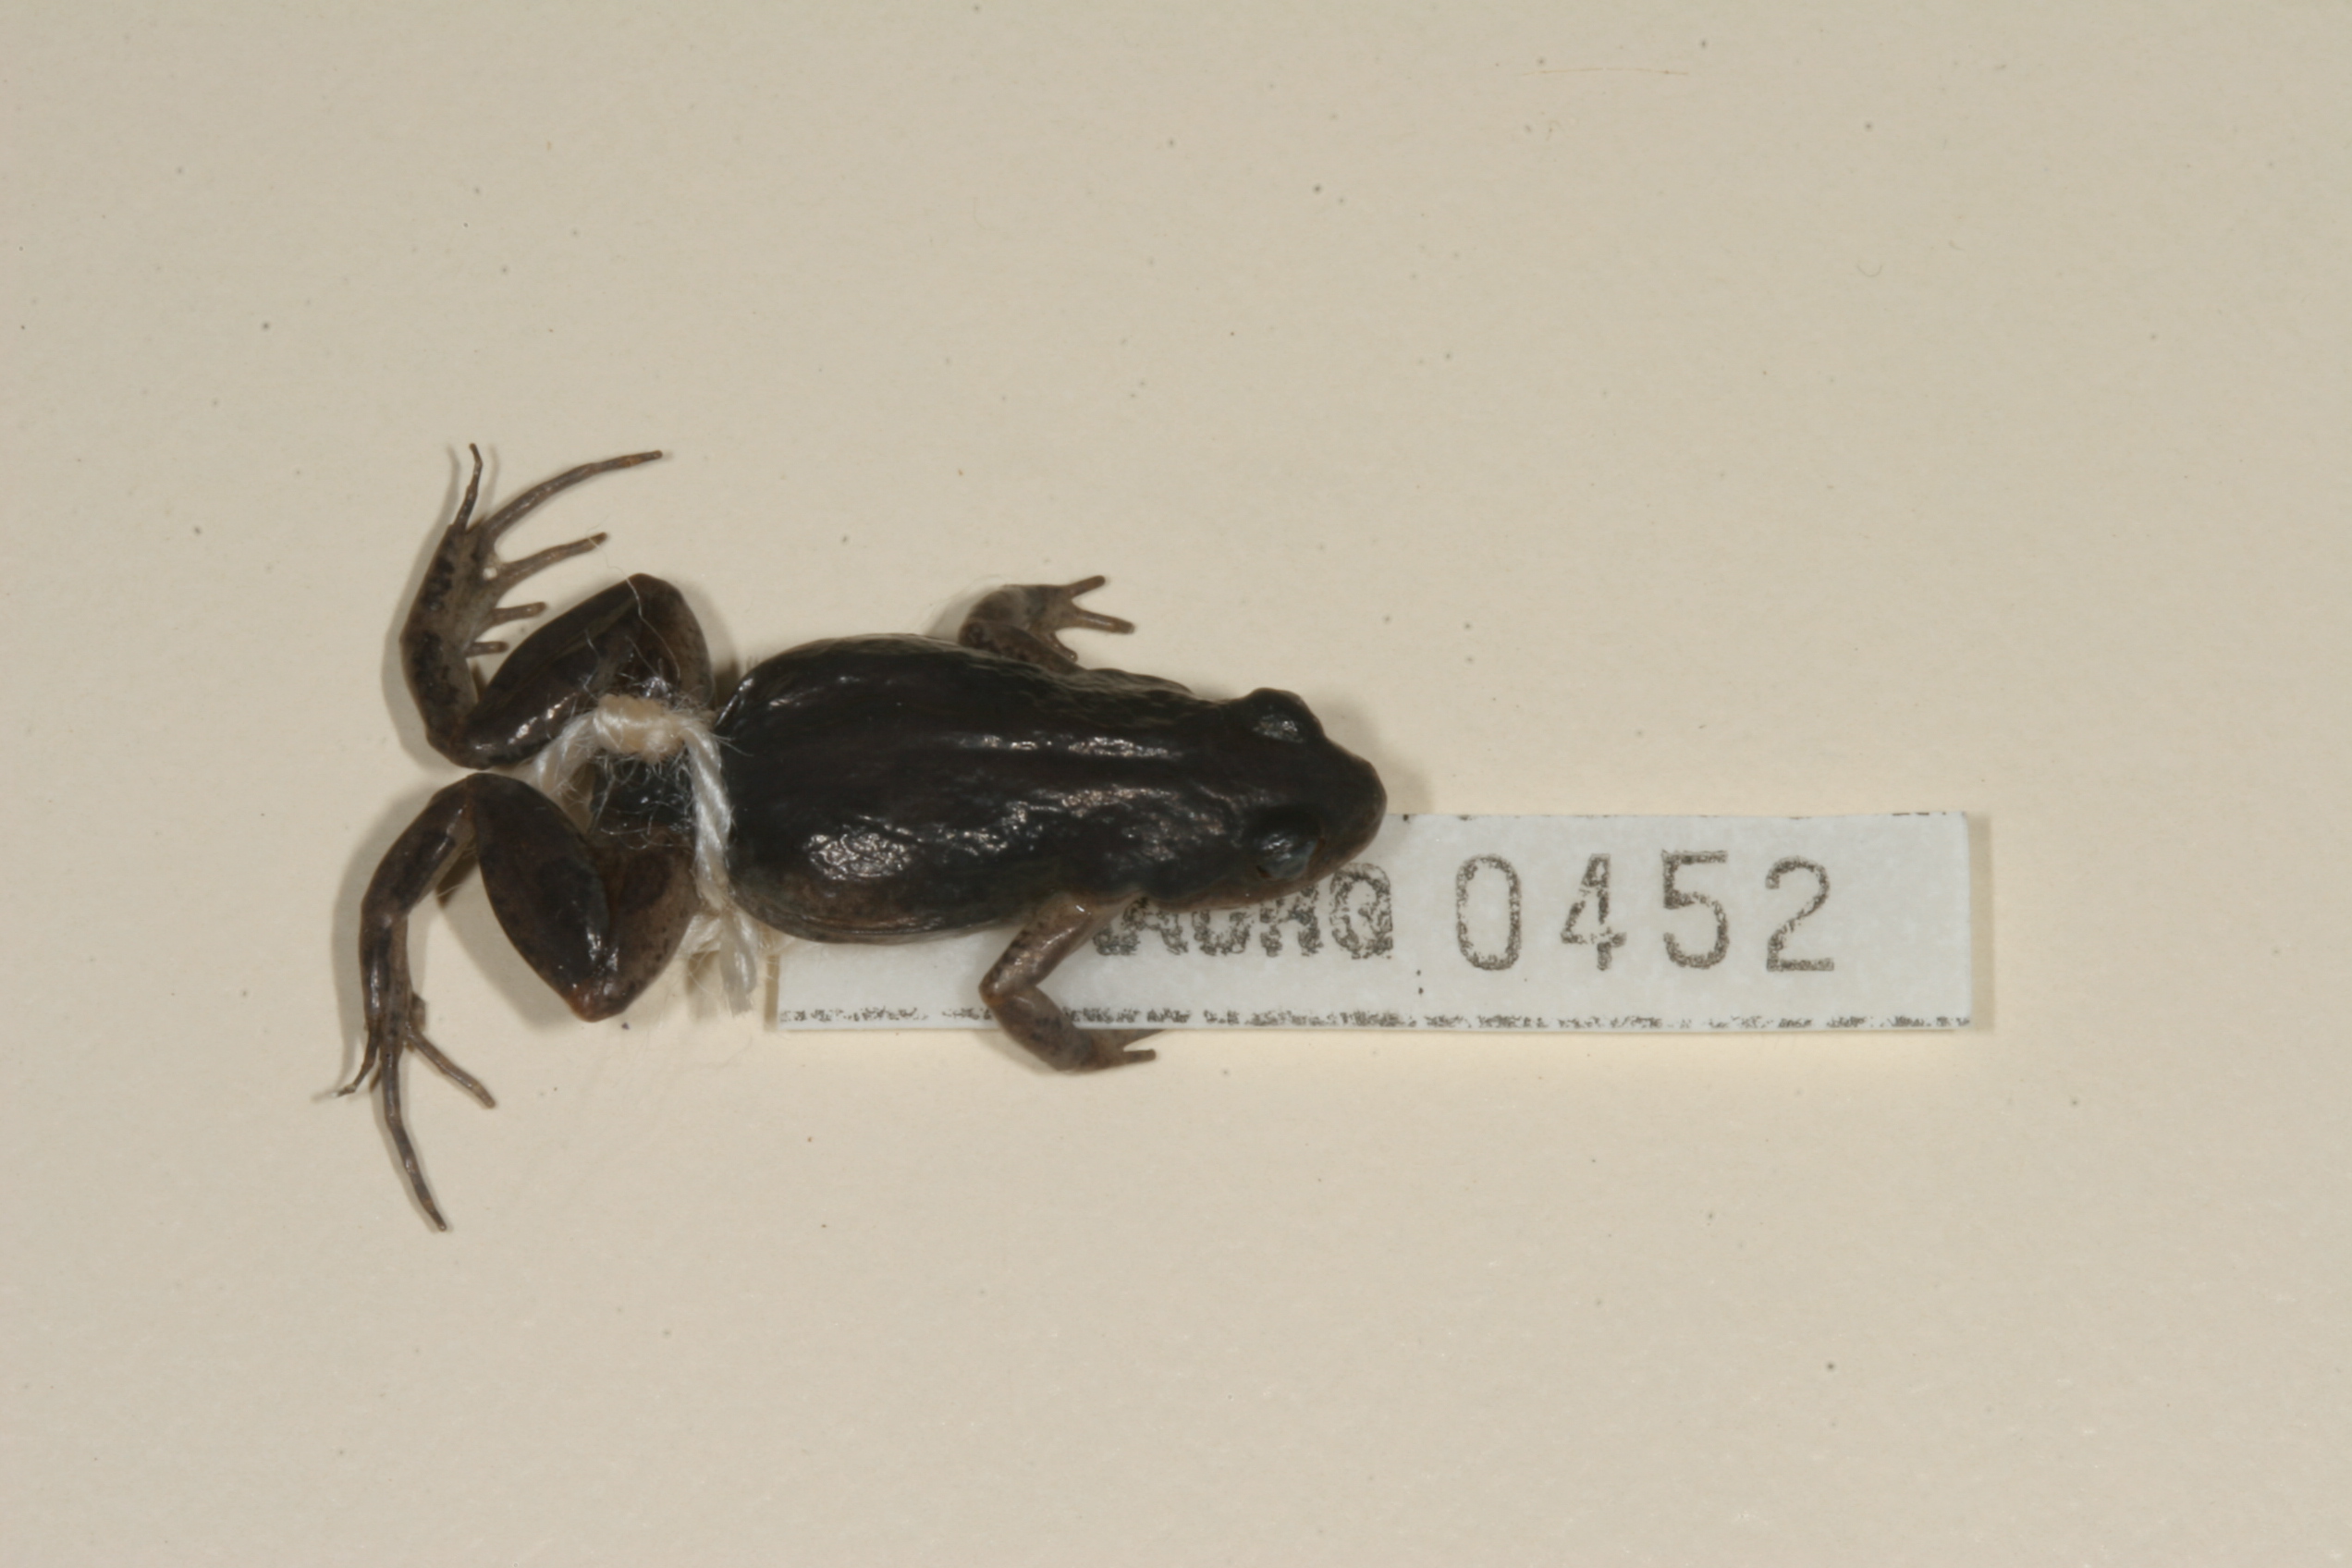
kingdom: Animalia
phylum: Chordata
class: Amphibia
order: Anura
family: Pyxicephalidae
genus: Cacosternum
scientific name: Cacosternum platys
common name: Smooth dainty frog
